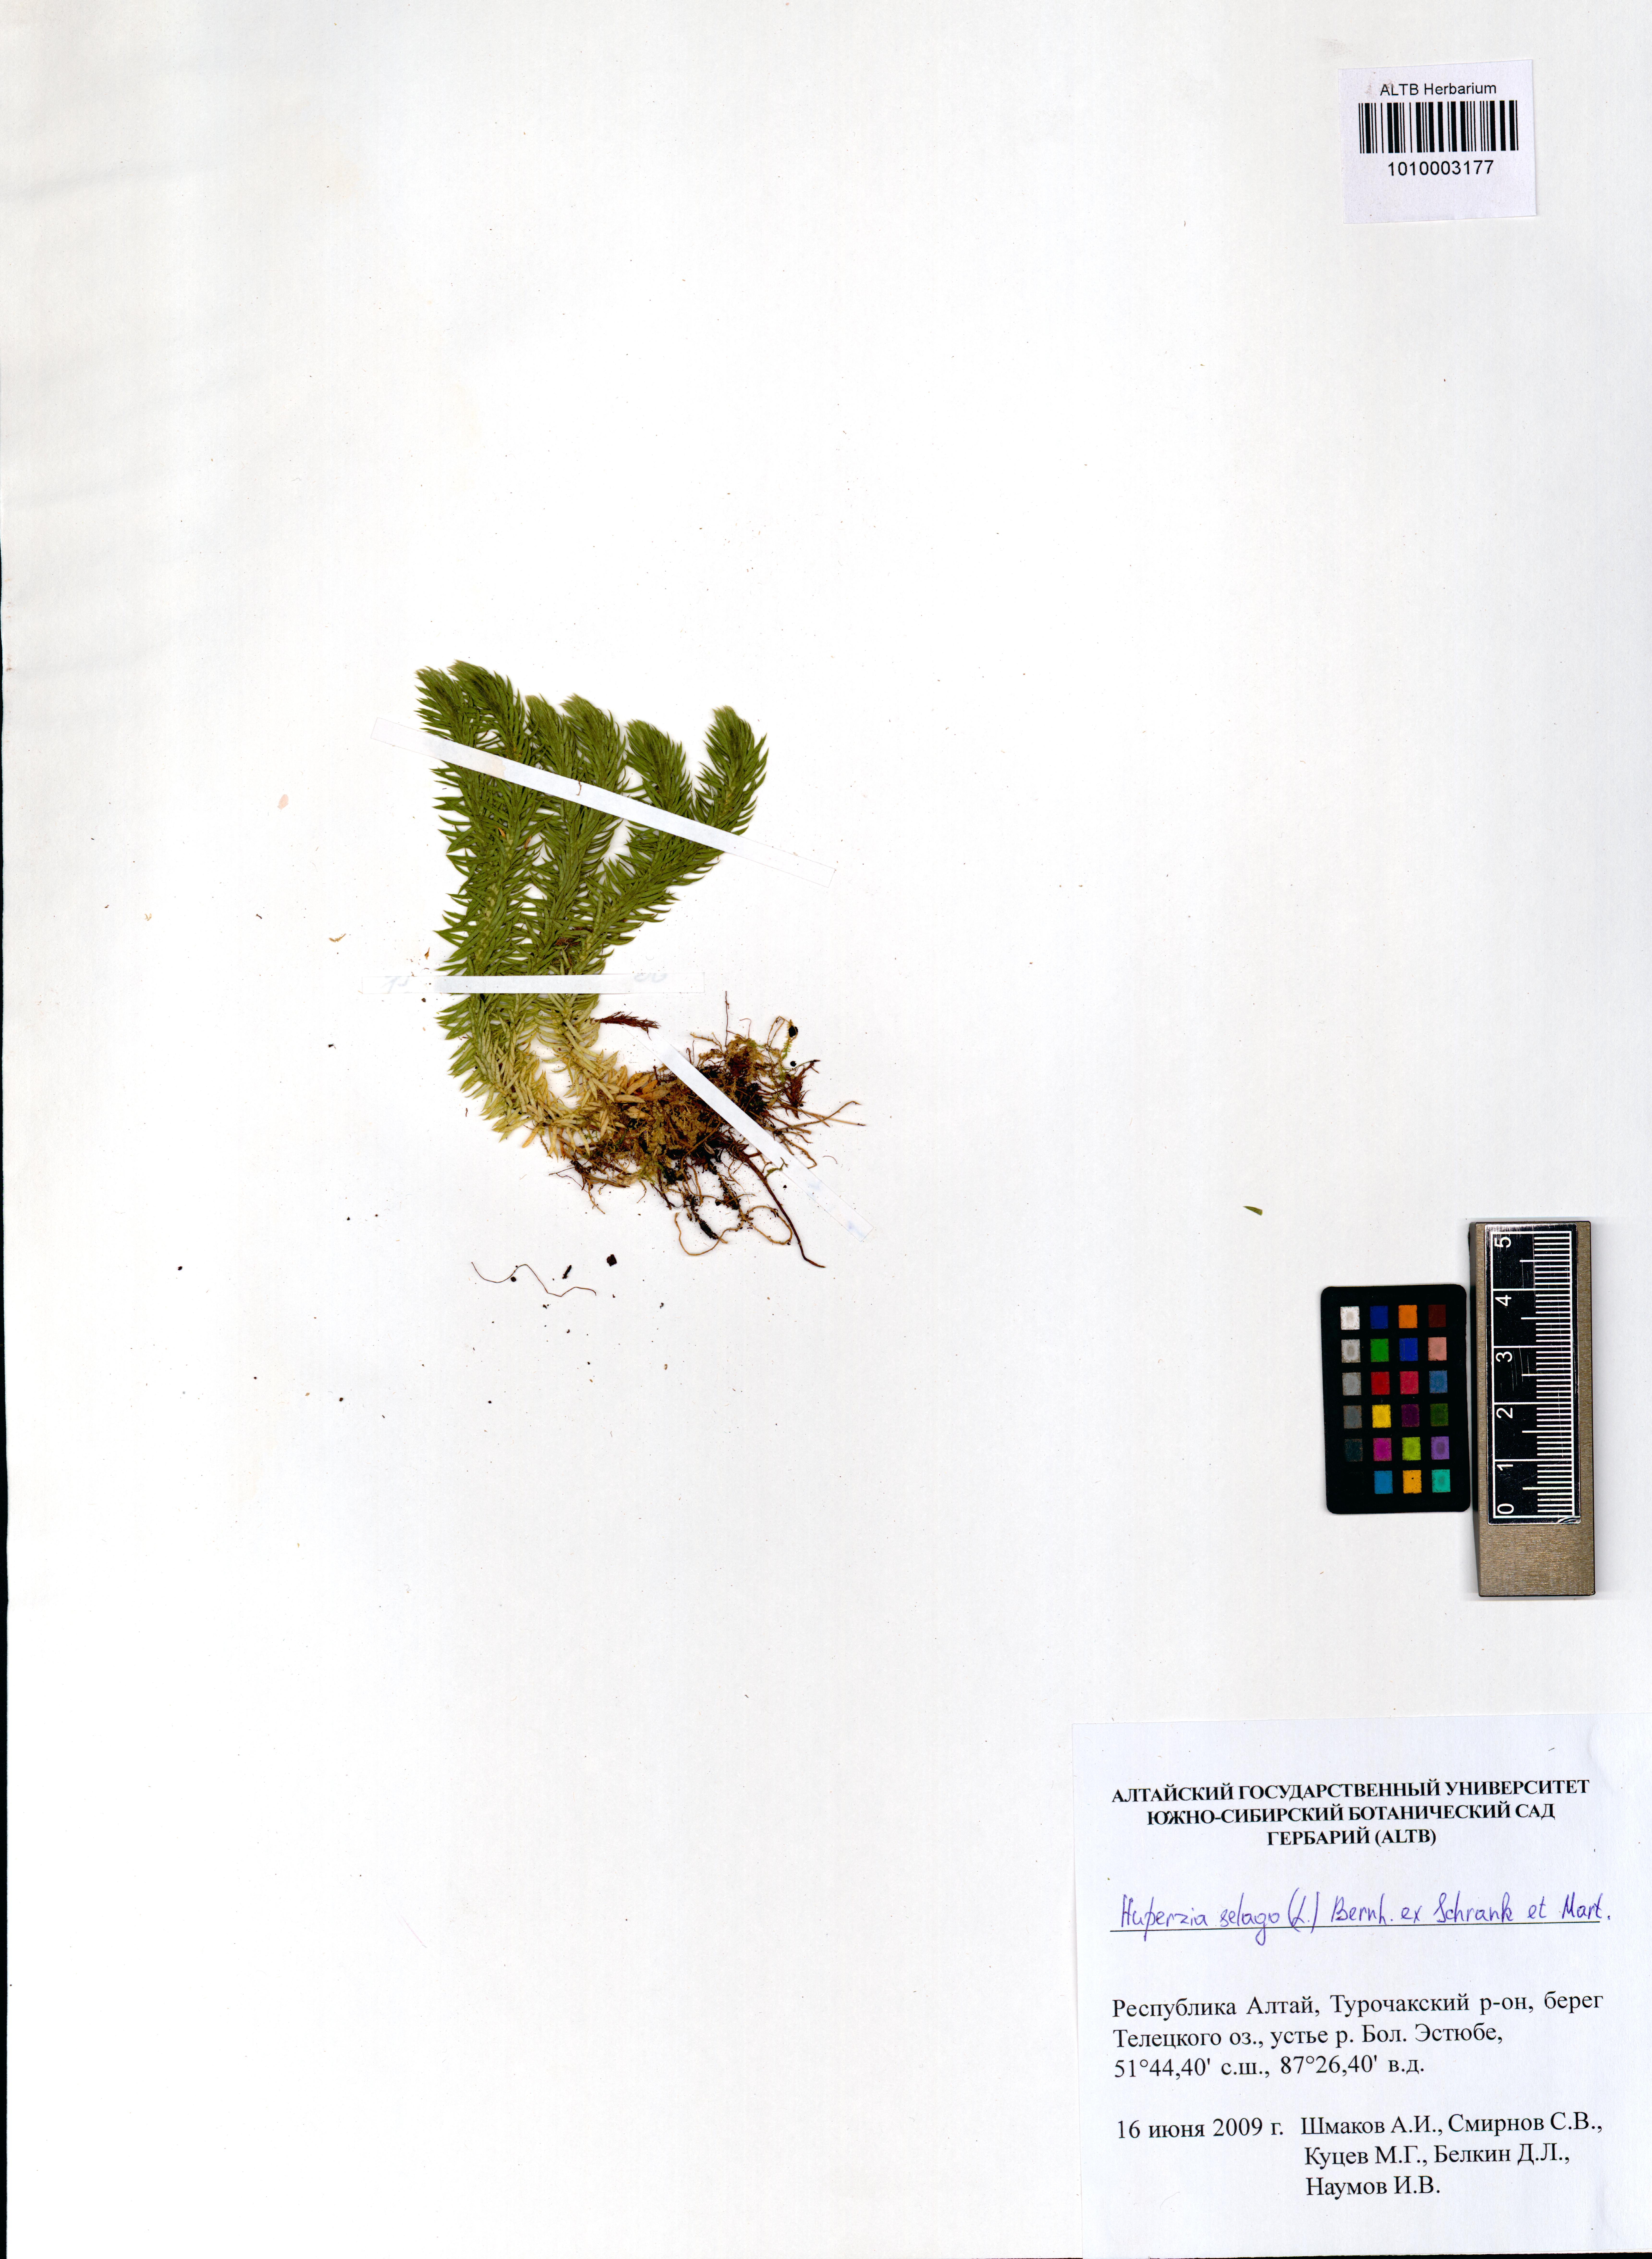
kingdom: Plantae
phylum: Tracheophyta
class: Lycopodiopsida
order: Lycopodiales
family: Lycopodiaceae
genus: Huperzia
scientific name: Huperzia selago
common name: Northern firmoss
